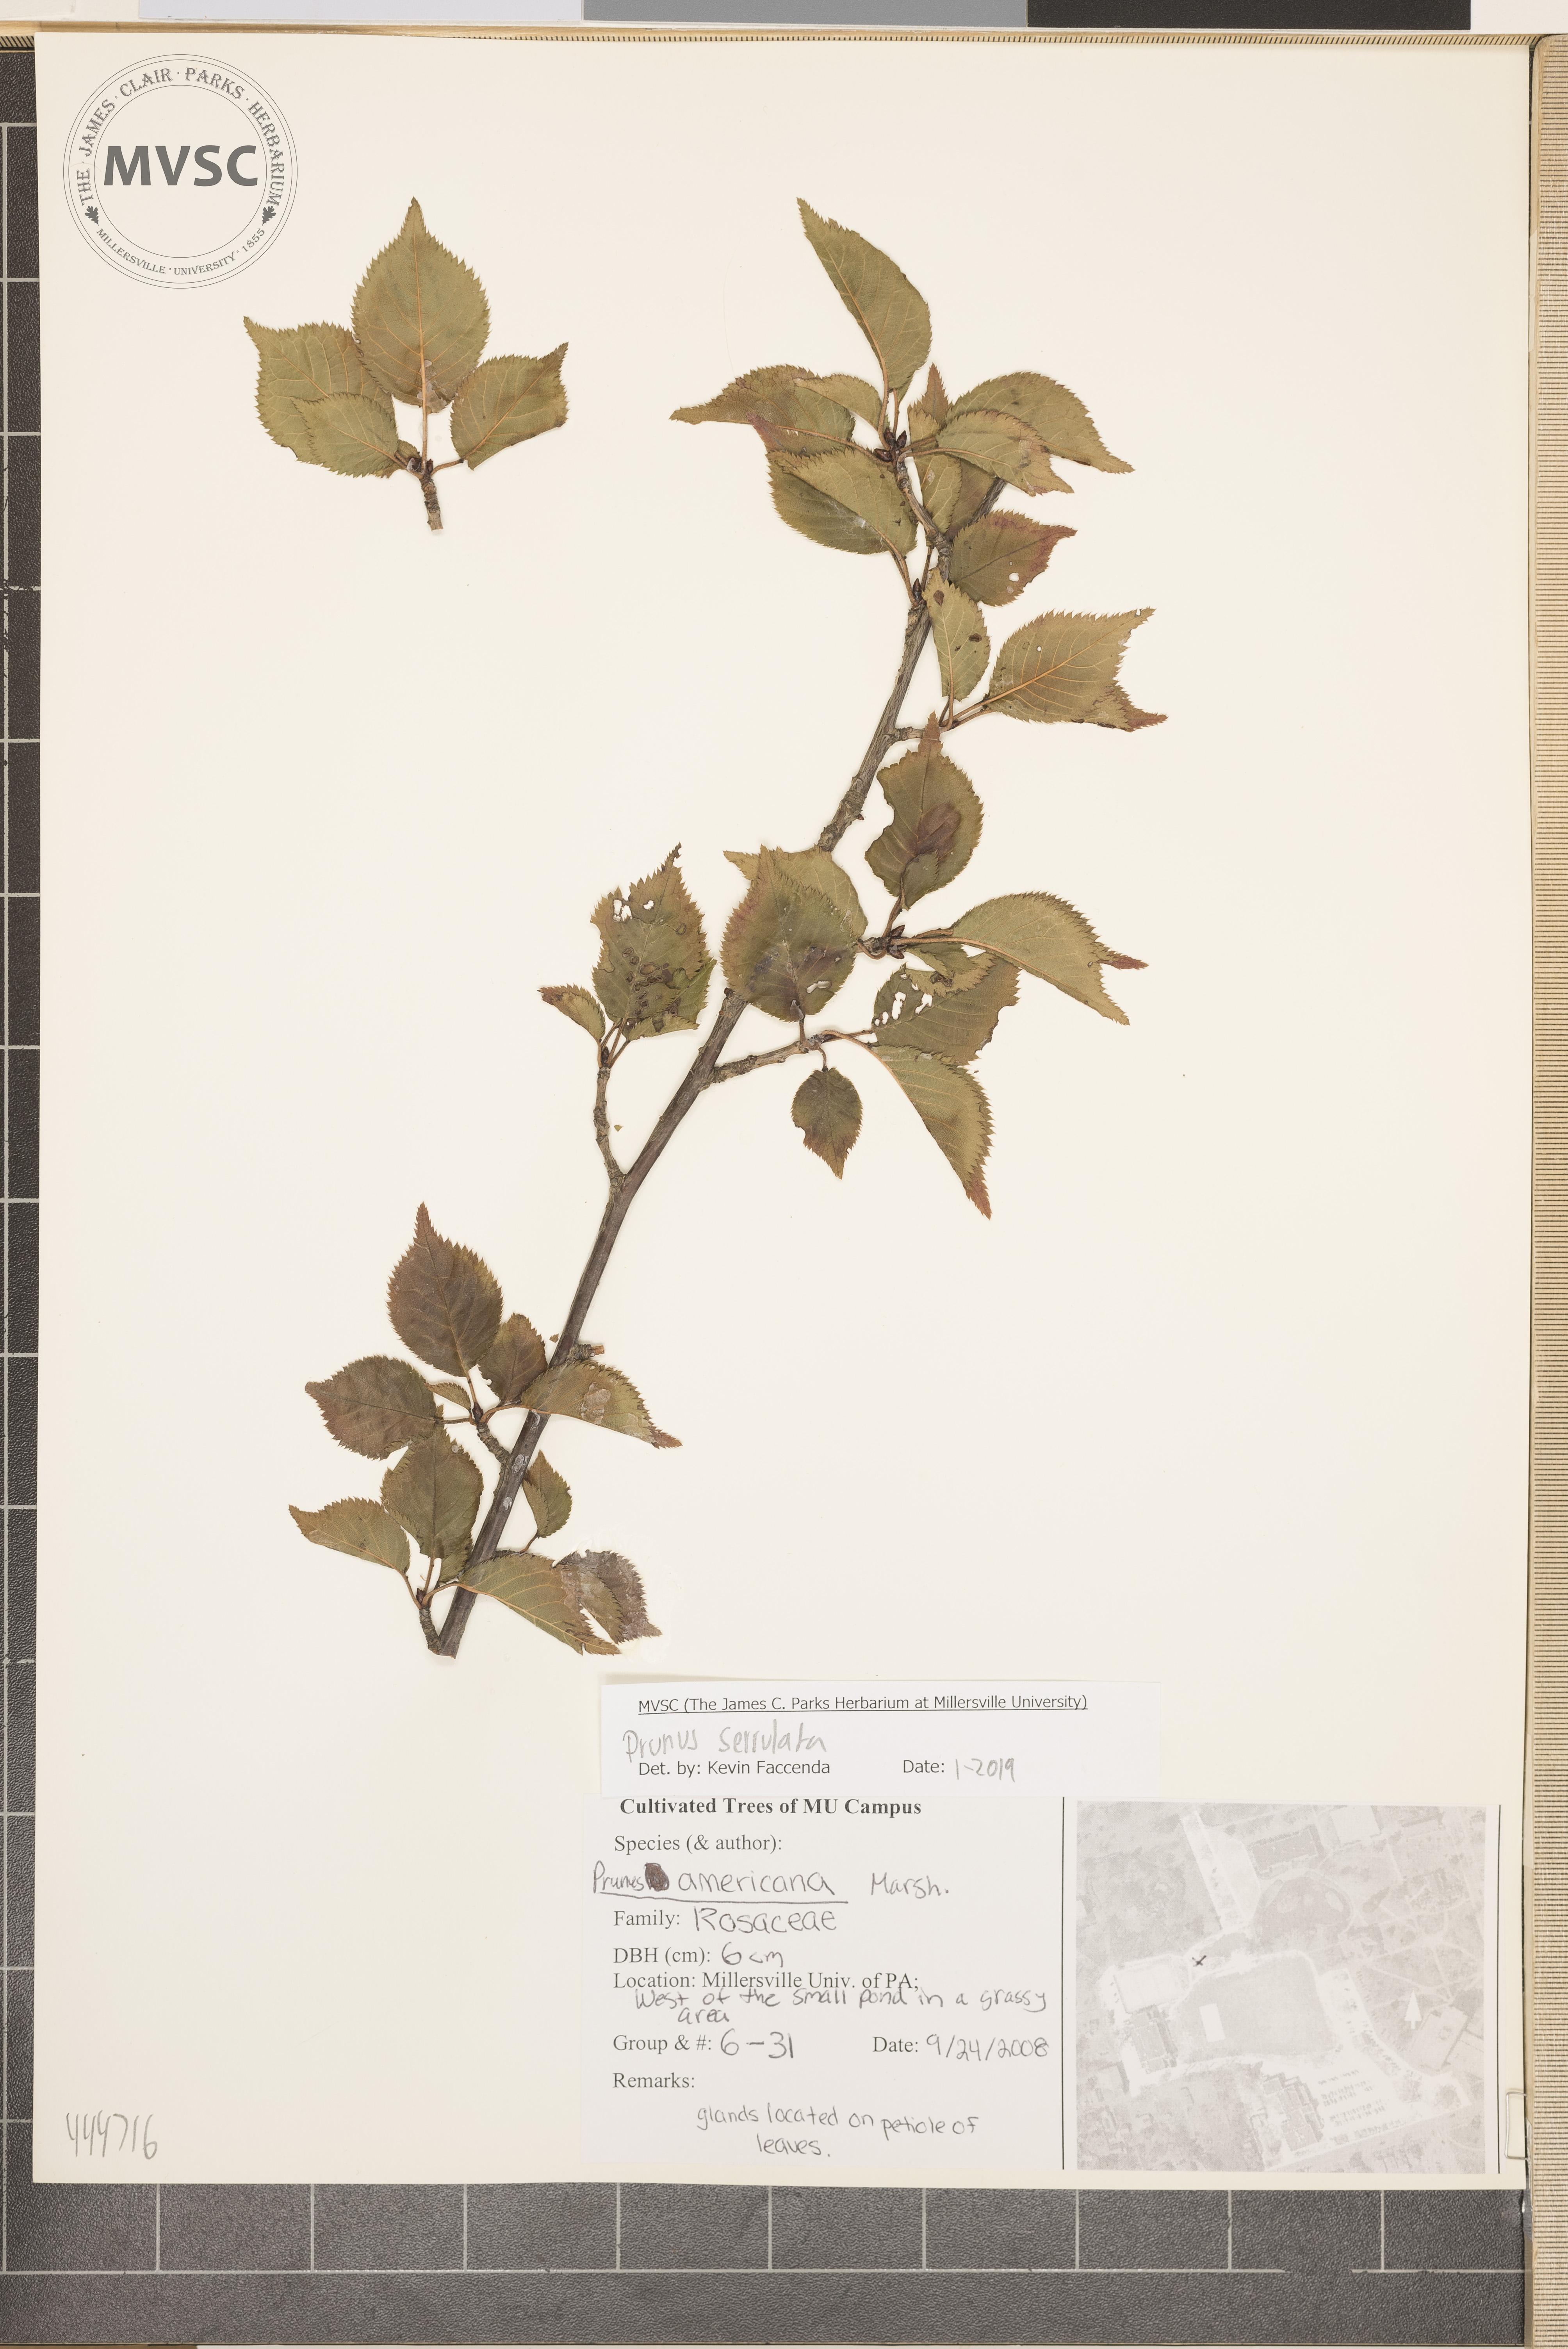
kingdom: Plantae
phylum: Tracheophyta
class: Magnoliopsida
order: Rosales
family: Rosaceae
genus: Prunus
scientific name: Prunus serrulata
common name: Japanese cherry
